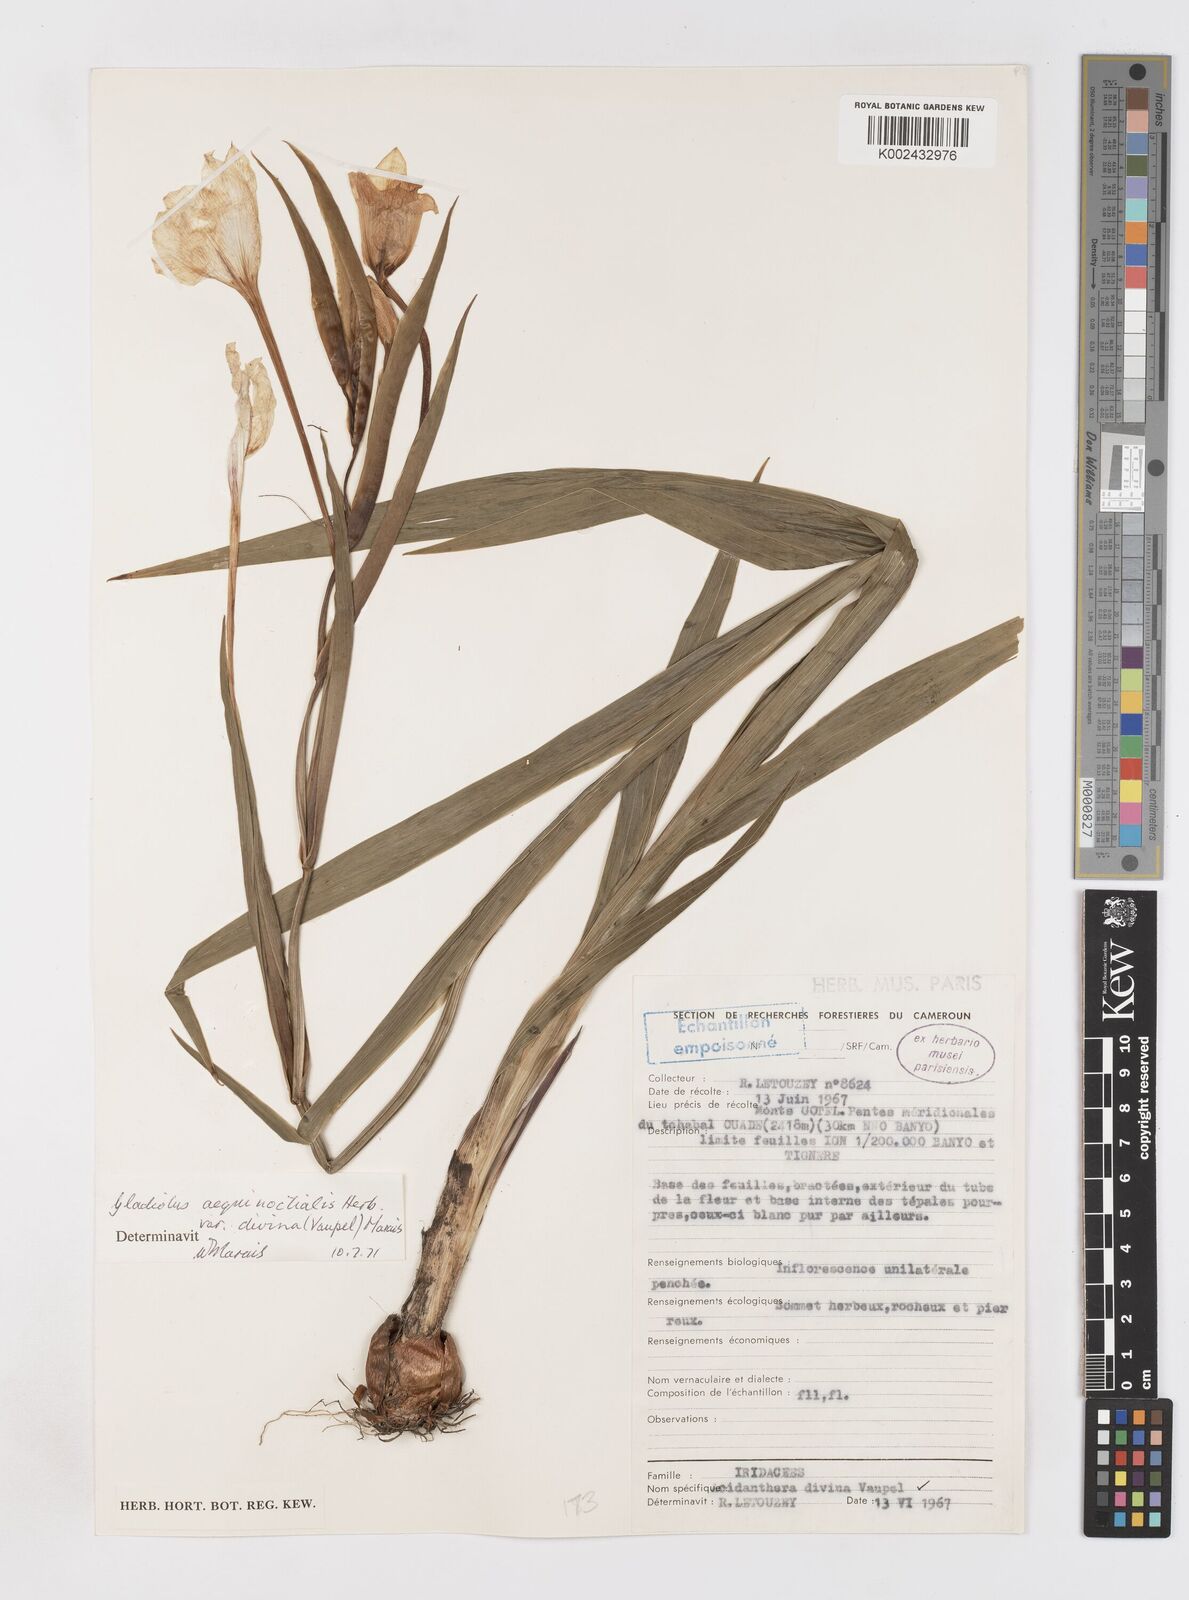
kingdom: Plantae
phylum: Tracheophyta
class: Liliopsida
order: Asparagales
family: Iridaceae
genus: Gladiolus
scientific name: Gladiolus aequinoctialis
